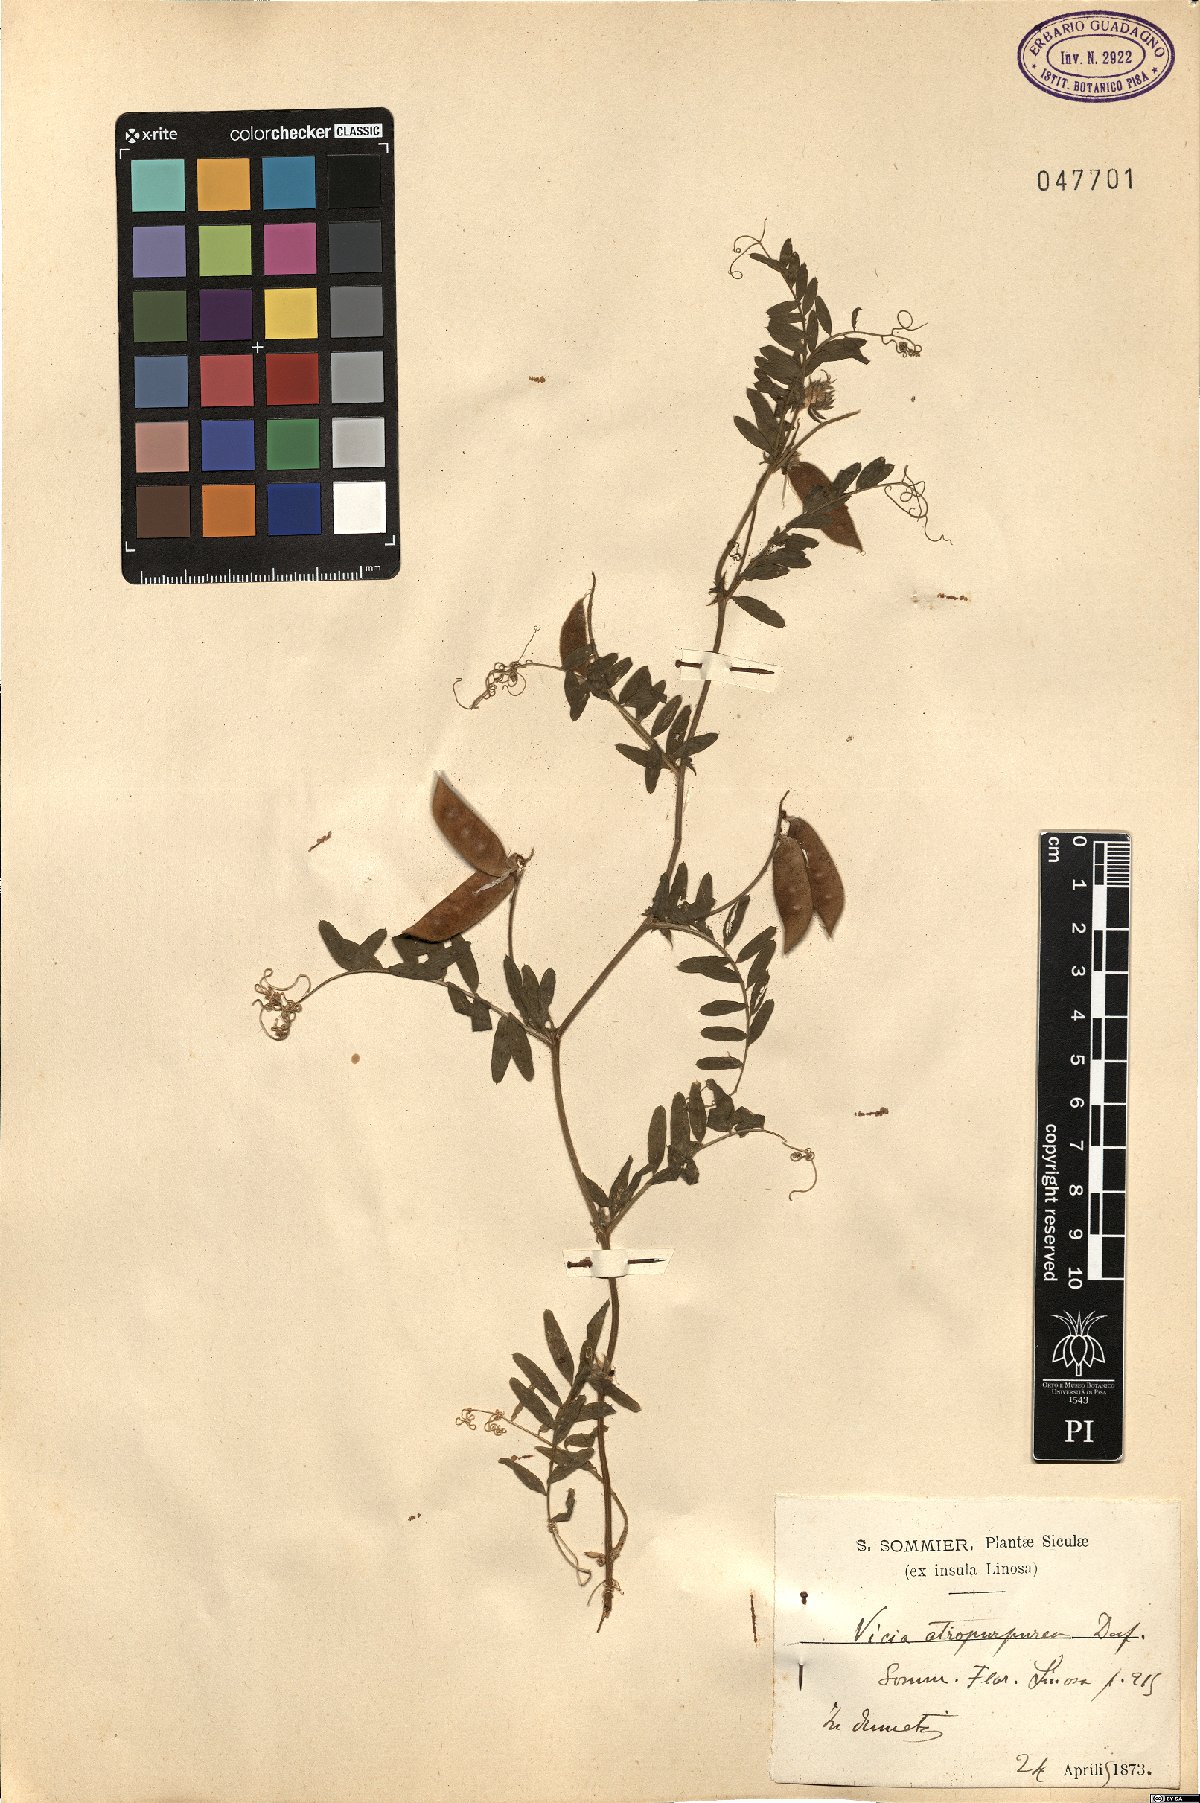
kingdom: Plantae
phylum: Tracheophyta
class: Magnoliopsida
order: Fabales
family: Fabaceae
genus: Vicia
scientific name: Vicia benghalensis
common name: Purple vetch
